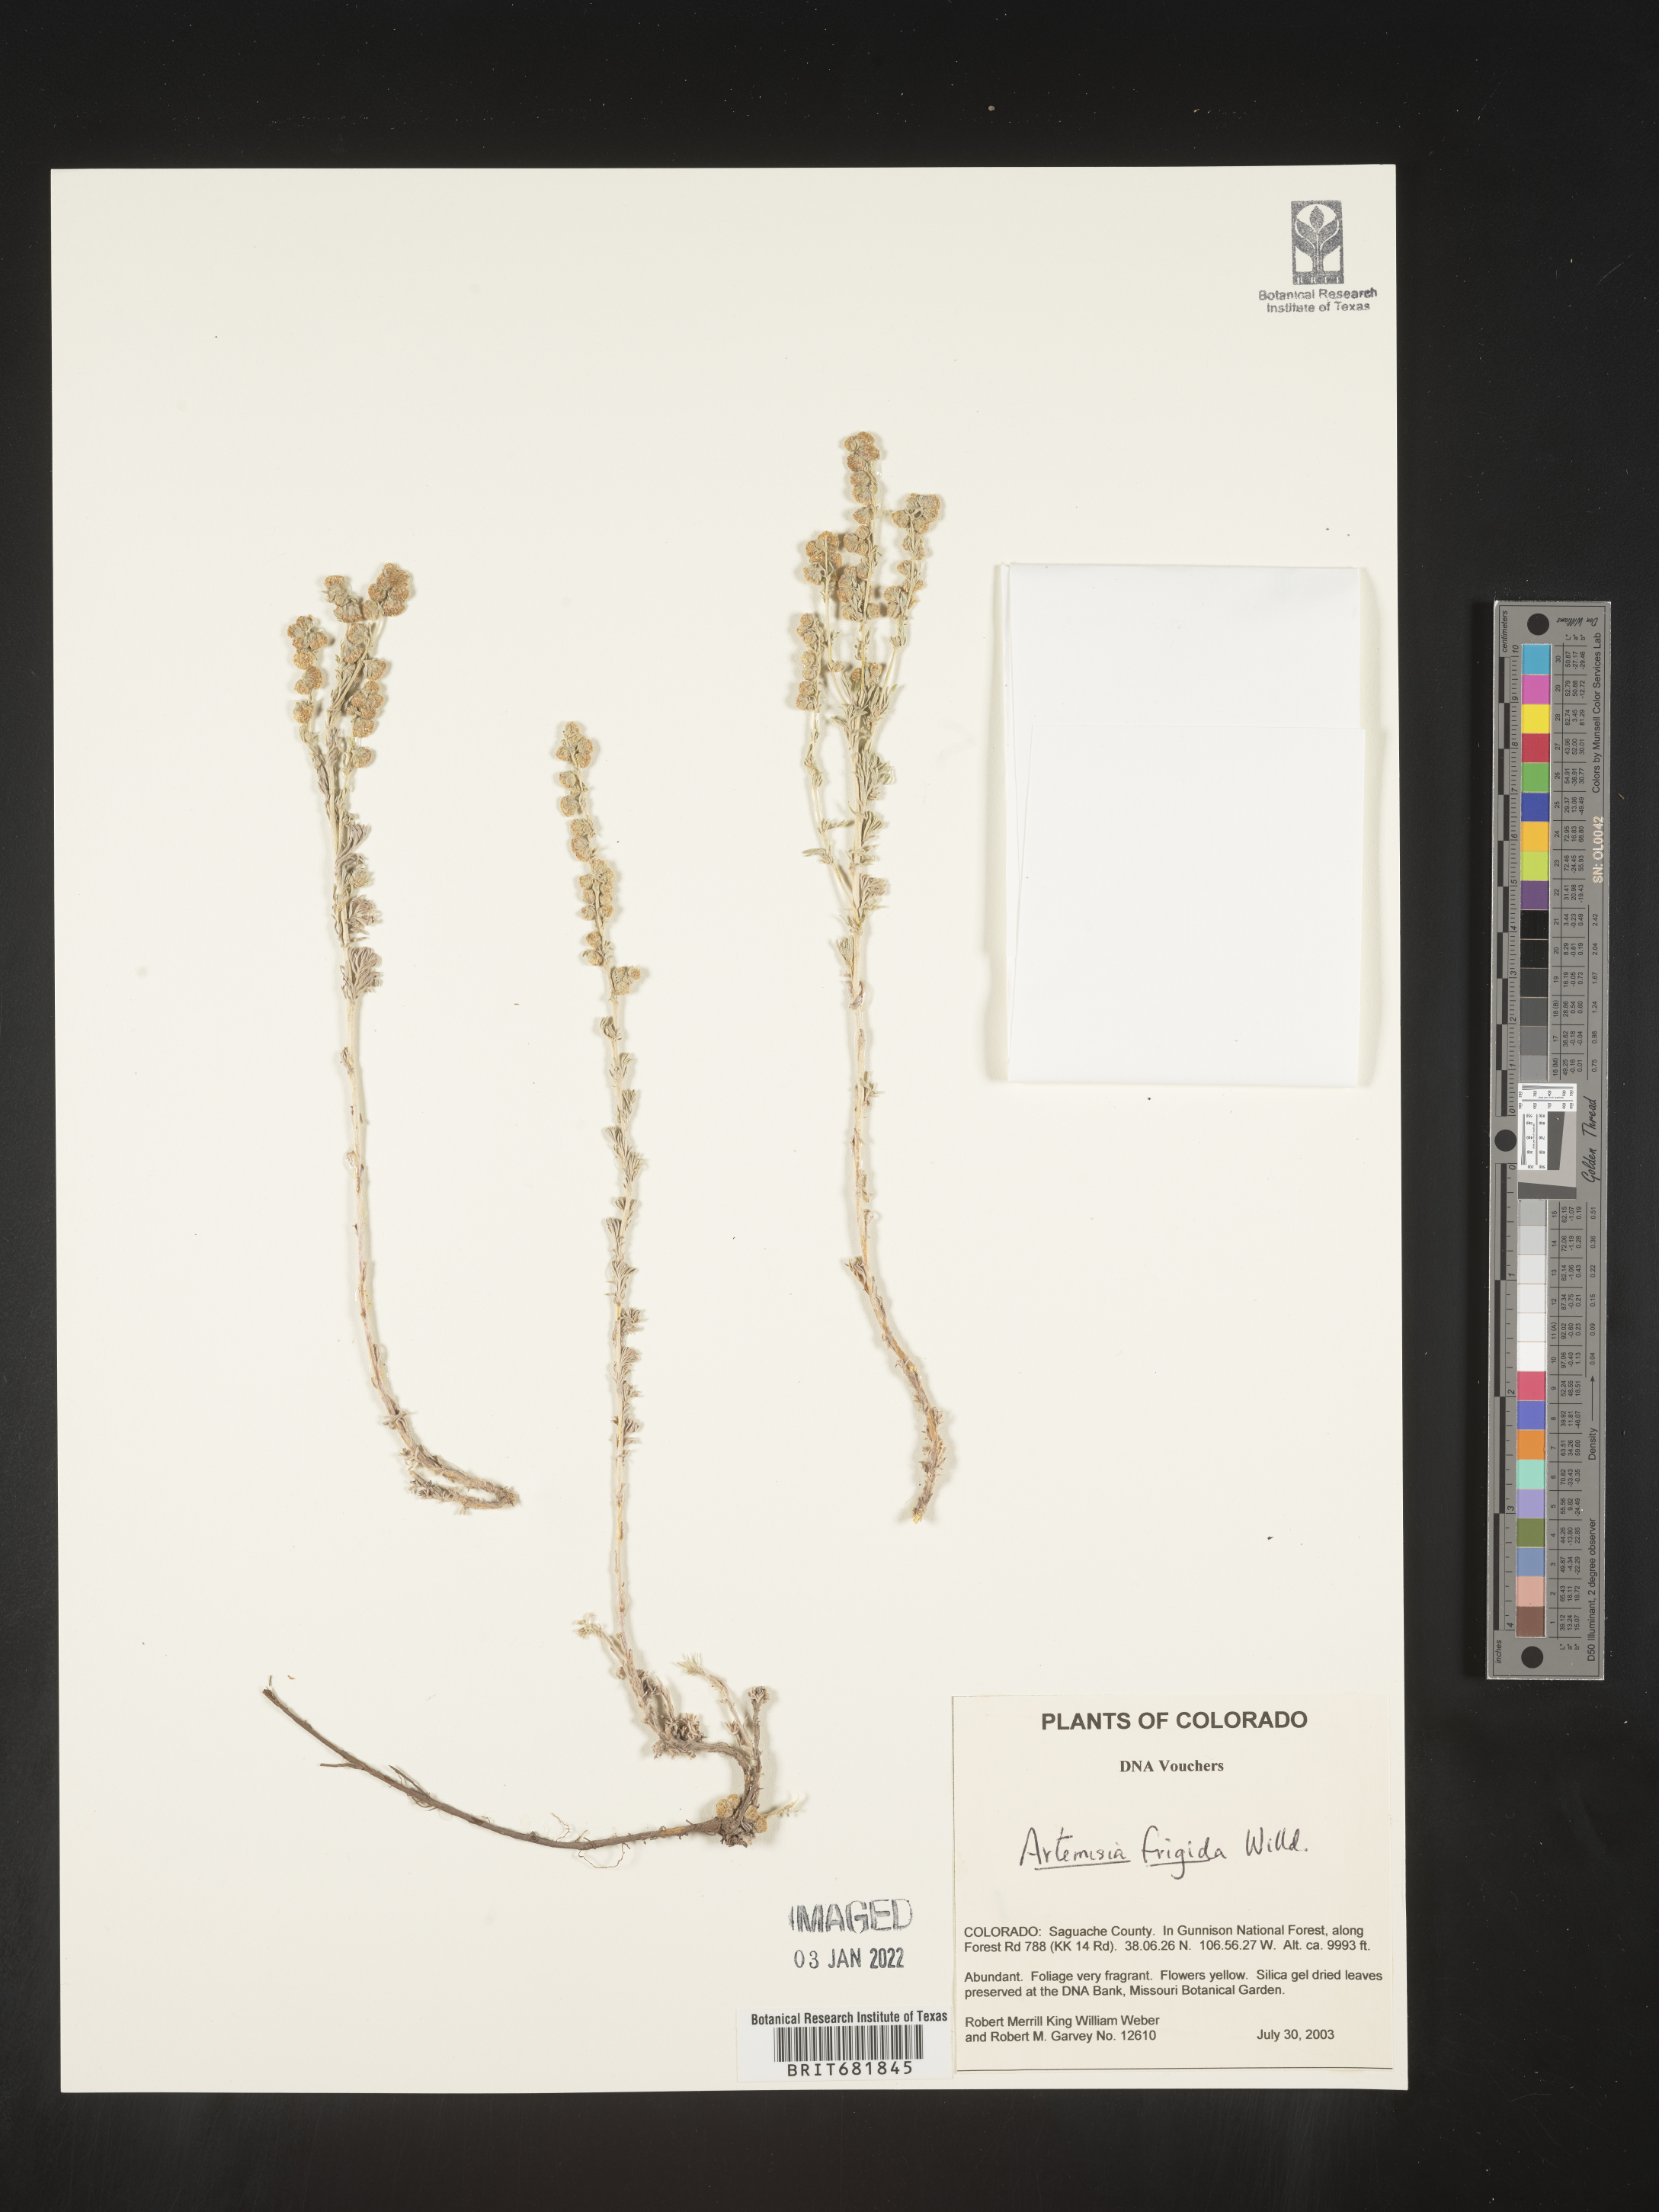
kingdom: Plantae
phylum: Tracheophyta
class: Magnoliopsida
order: Asterales
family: Asteraceae
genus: Artemisia
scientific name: Artemisia frigida
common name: Prairie sagewort
